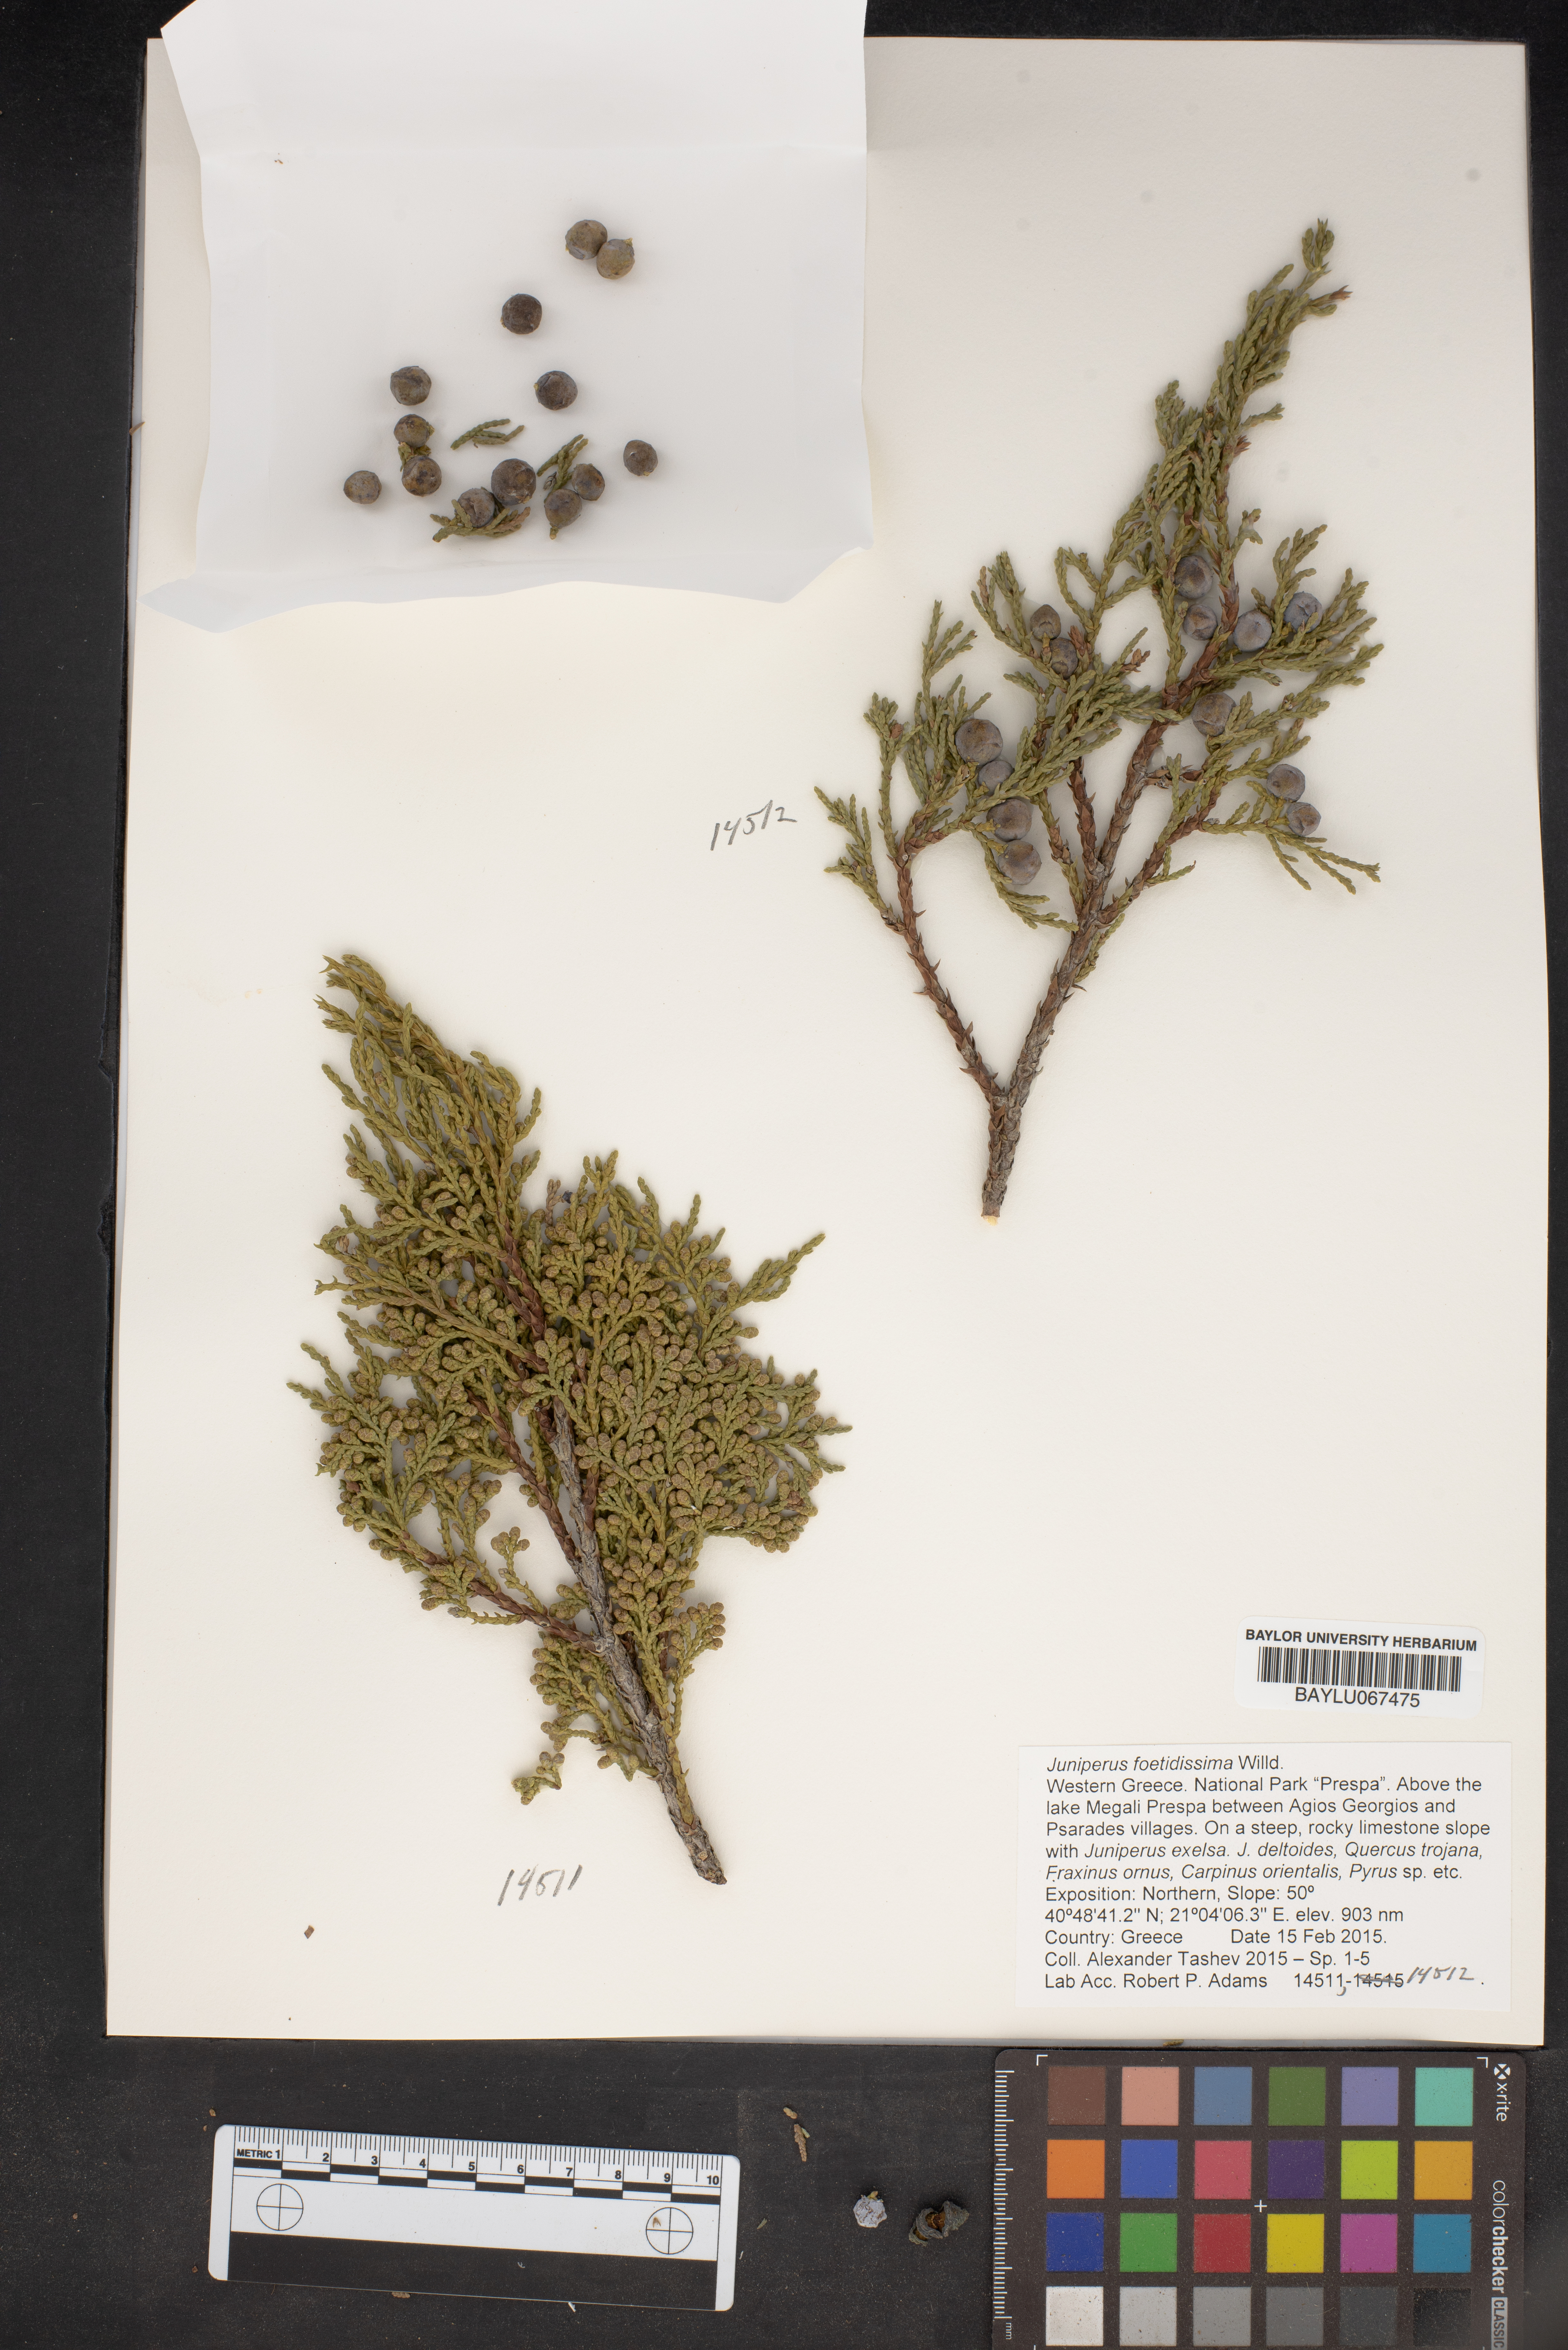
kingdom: Plantae
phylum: Tracheophyta
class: Pinopsida
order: Pinales
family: Cupressaceae
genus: Juniperus
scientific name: Juniperus foetidissima
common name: Stinking juniper
